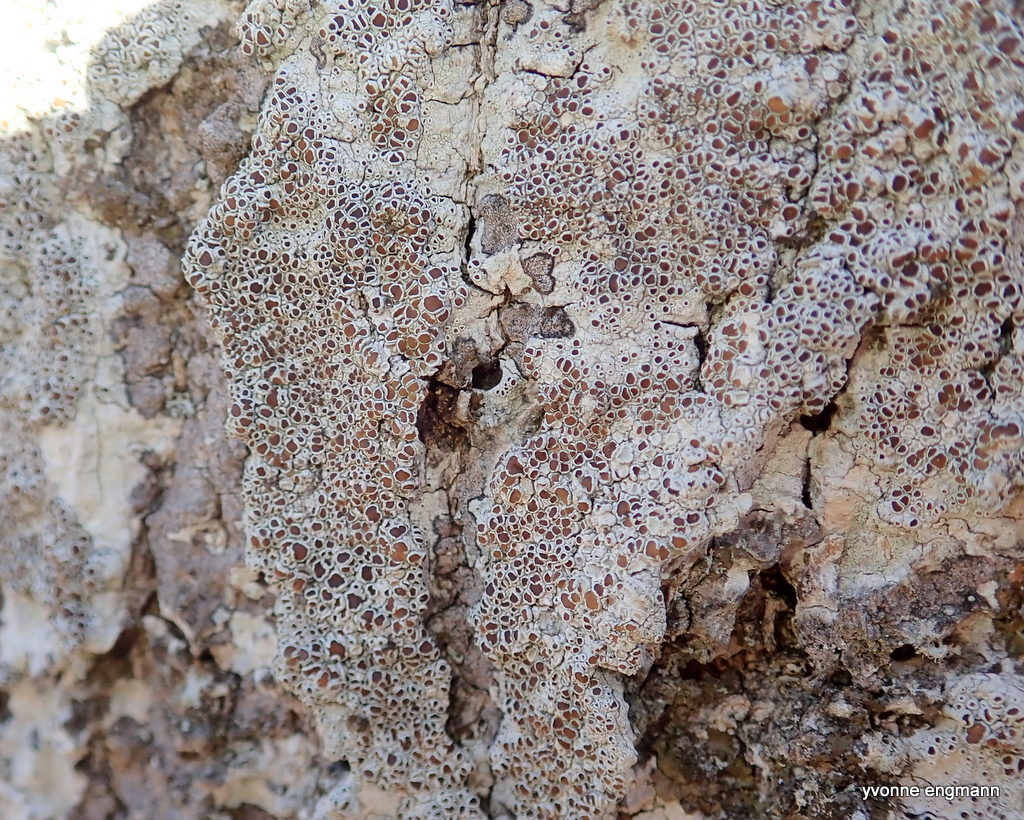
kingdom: Fungi
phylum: Ascomycota
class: Lecanoromycetes
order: Lecanorales
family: Lecanoraceae
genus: Lecanora
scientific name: Lecanora chlarotera
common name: brun kantskivelav
